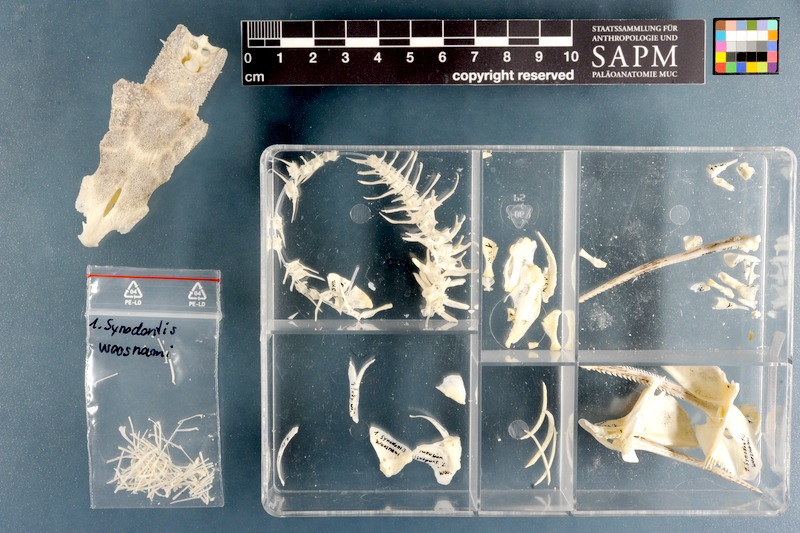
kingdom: Animalia
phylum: Chordata
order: Siluriformes
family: Mochokidae
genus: Synodontis
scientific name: Synodontis woosnami
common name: Upper zambezi squeaker
